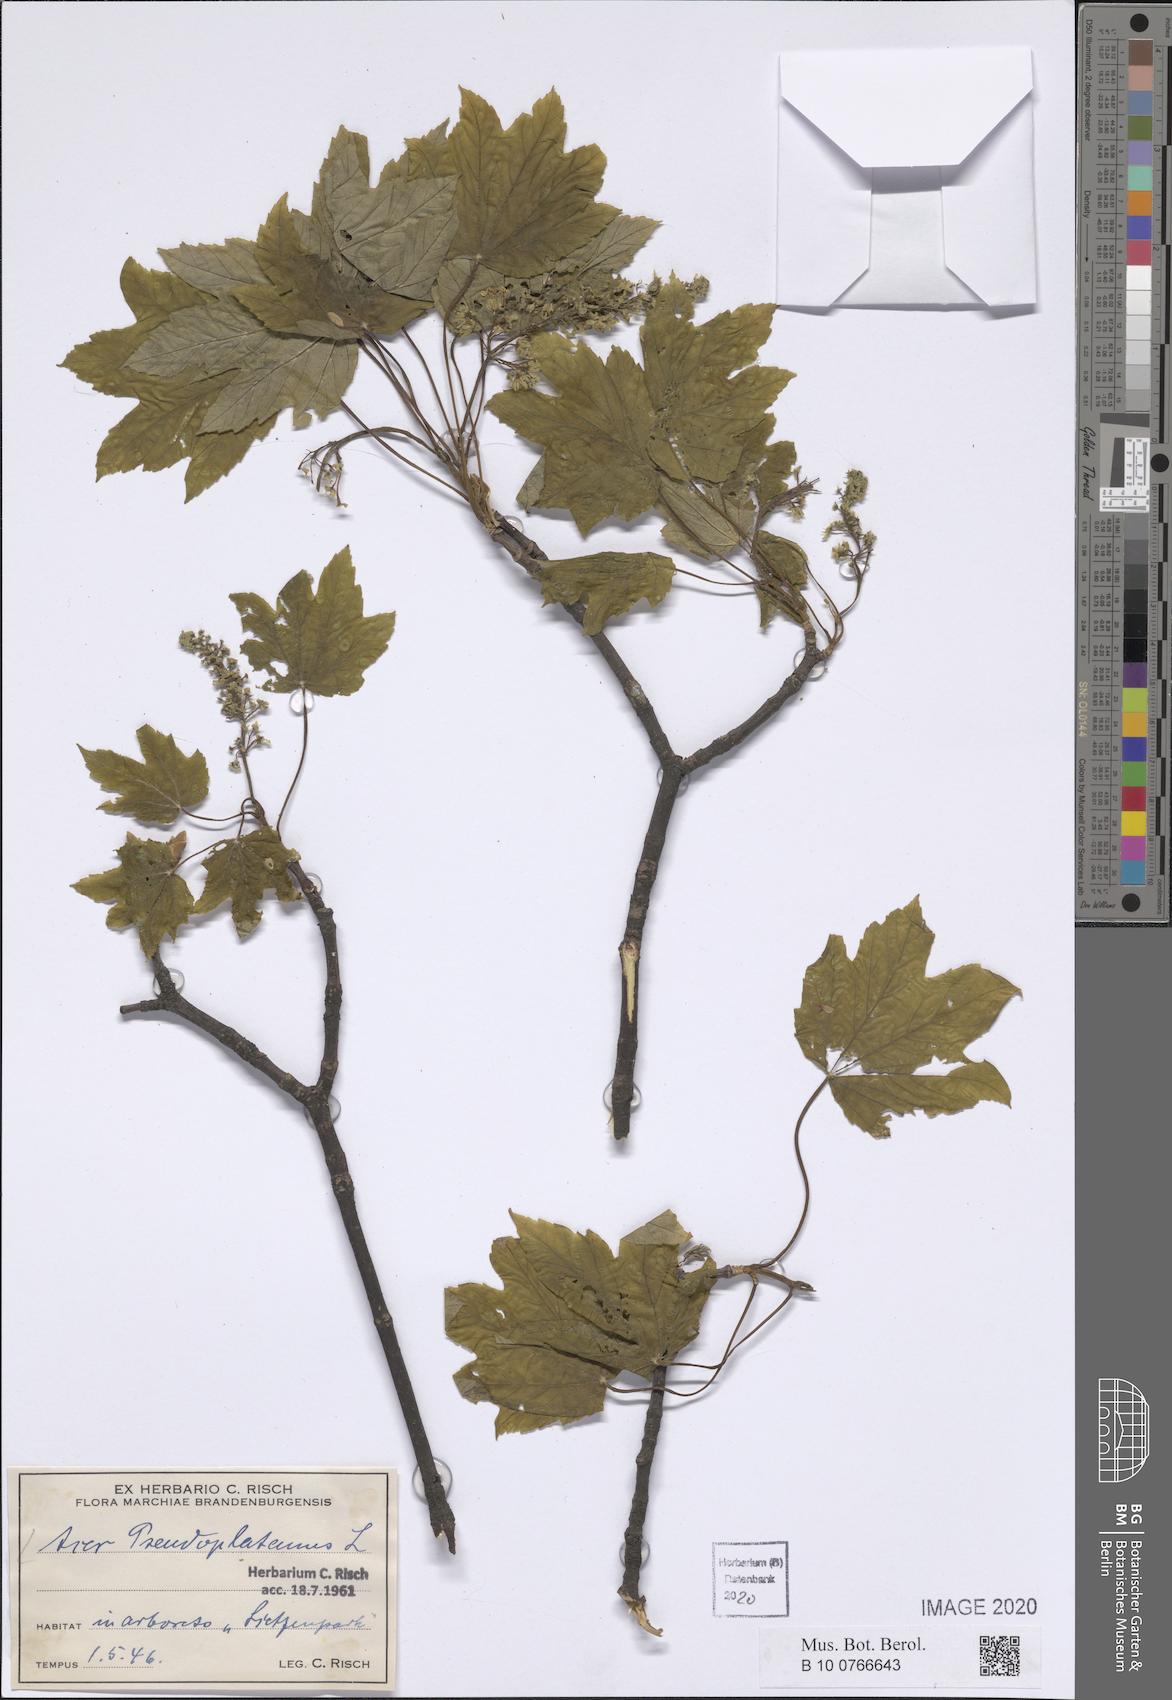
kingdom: Plantae
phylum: Tracheophyta
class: Magnoliopsida
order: Sapindales
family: Sapindaceae
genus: Acer
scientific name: Acer pseudoplatanus
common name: Sycamore
